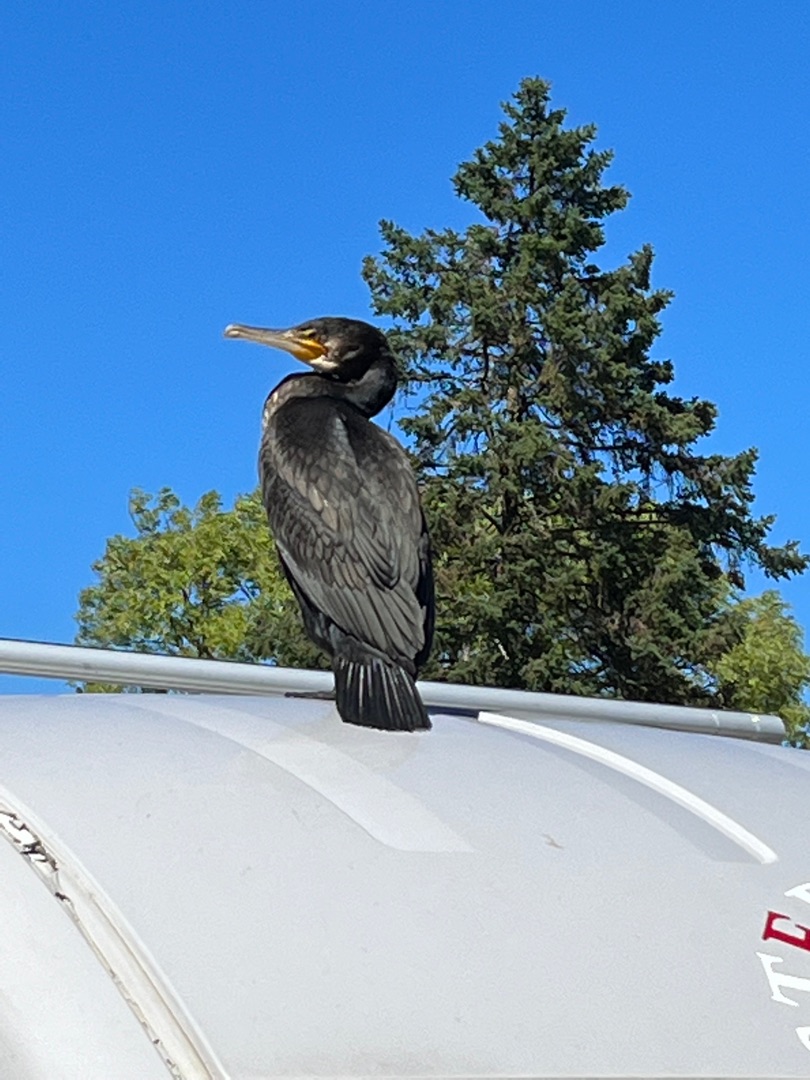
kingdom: Animalia
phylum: Chordata
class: Aves
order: Suliformes
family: Phalacrocoracidae
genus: Phalacrocorax
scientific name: Phalacrocorax carbo
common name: Skarv
